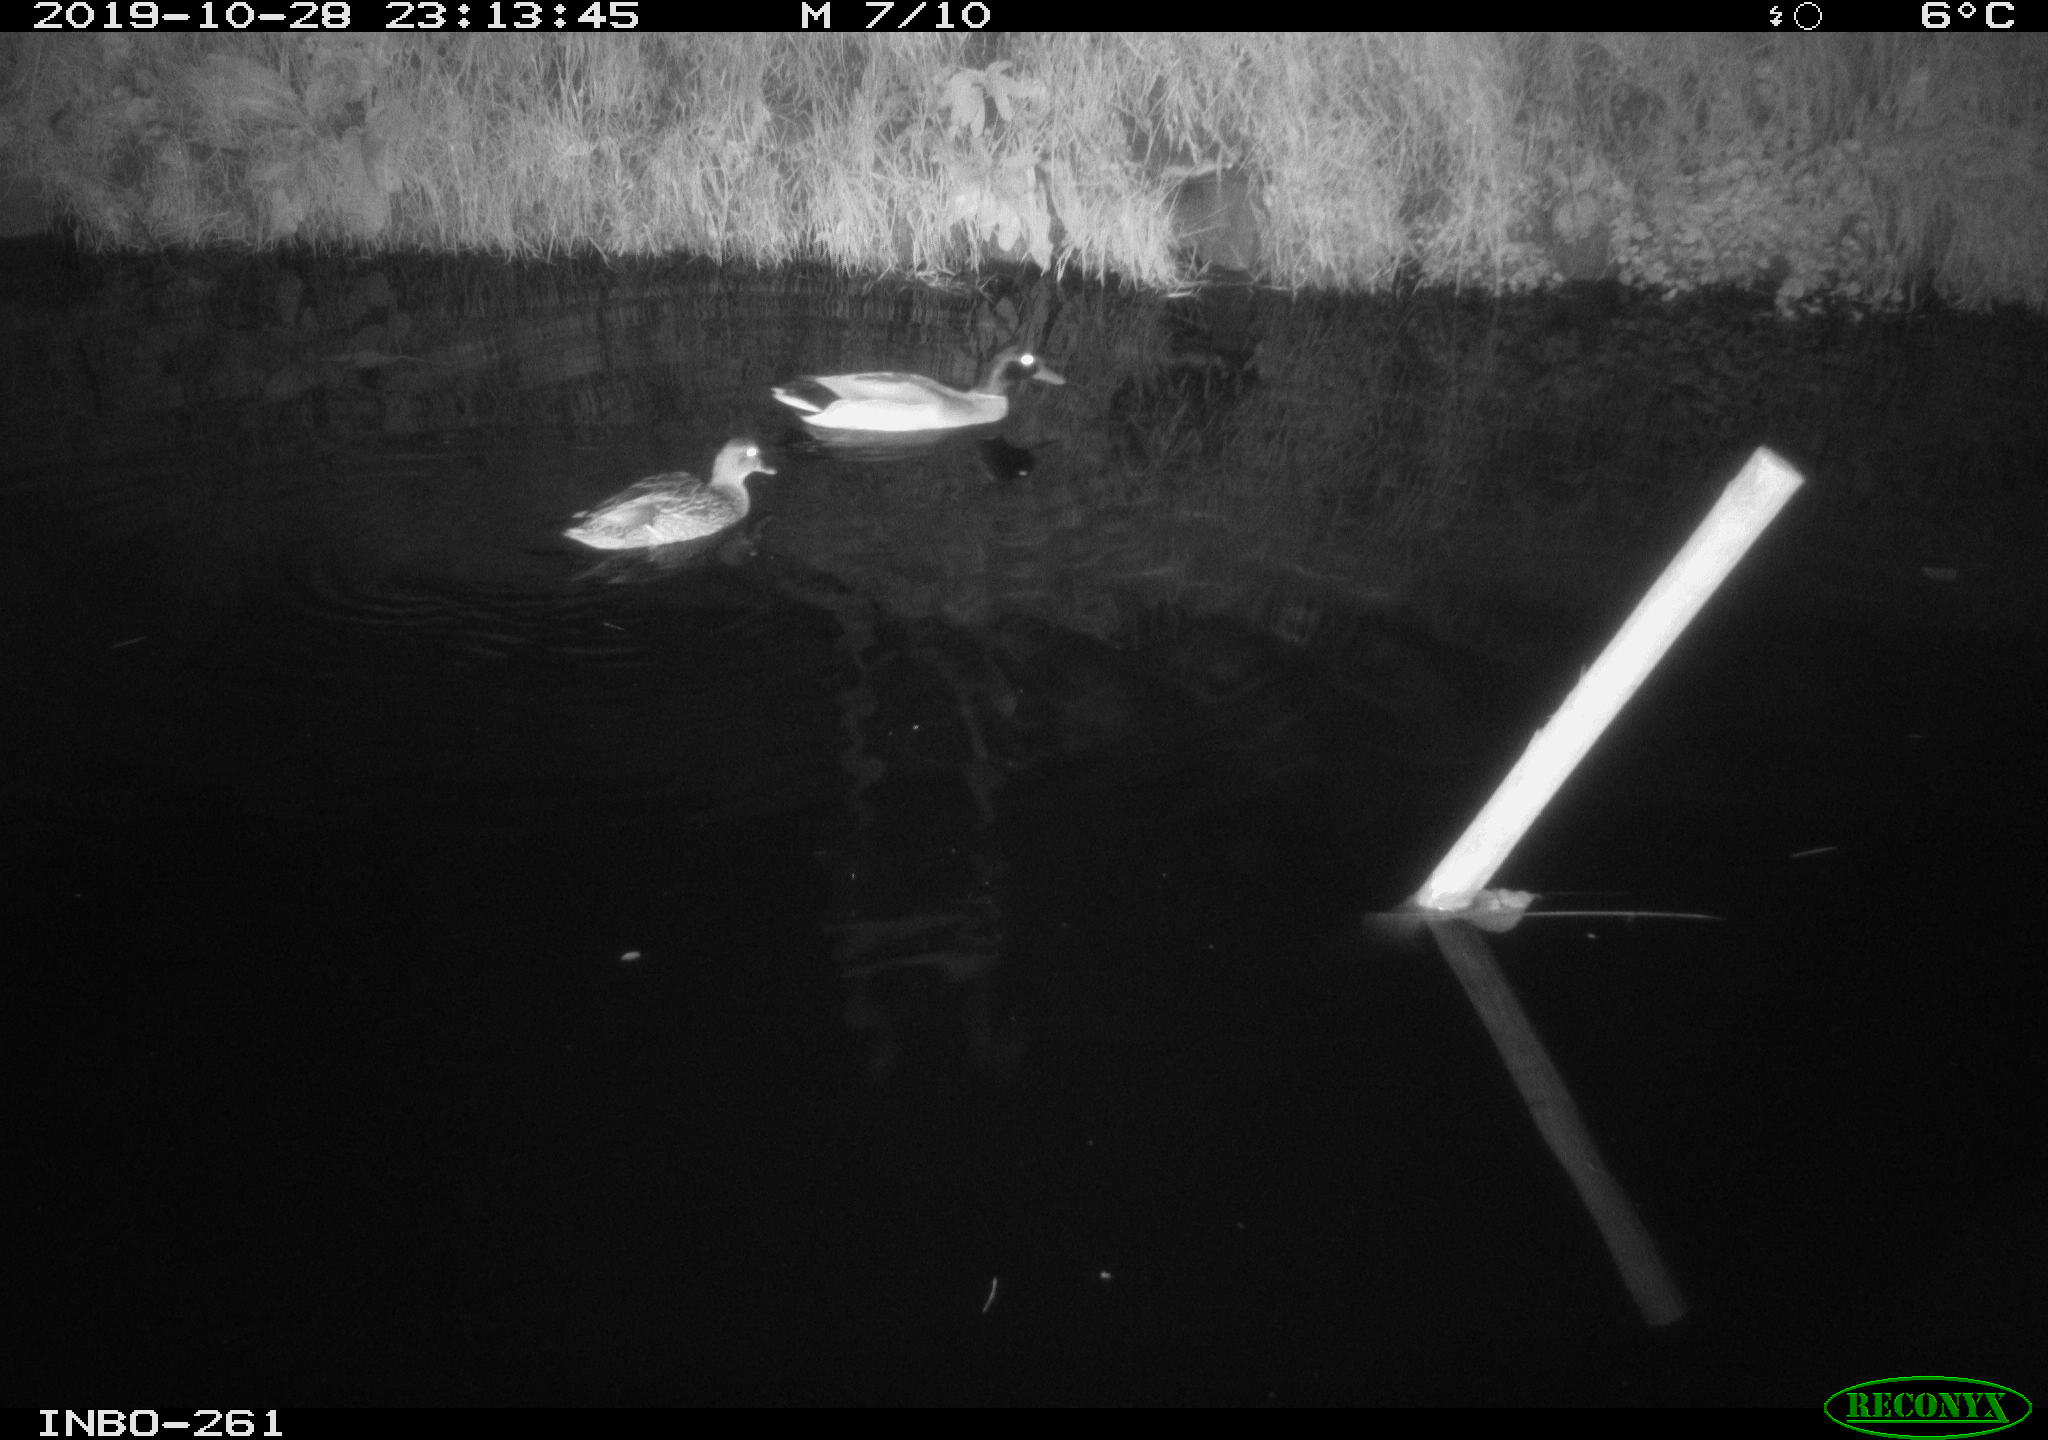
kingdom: Animalia
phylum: Chordata
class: Aves
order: Anseriformes
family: Anatidae
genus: Anas
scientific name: Anas platyrhynchos
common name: Mallard
